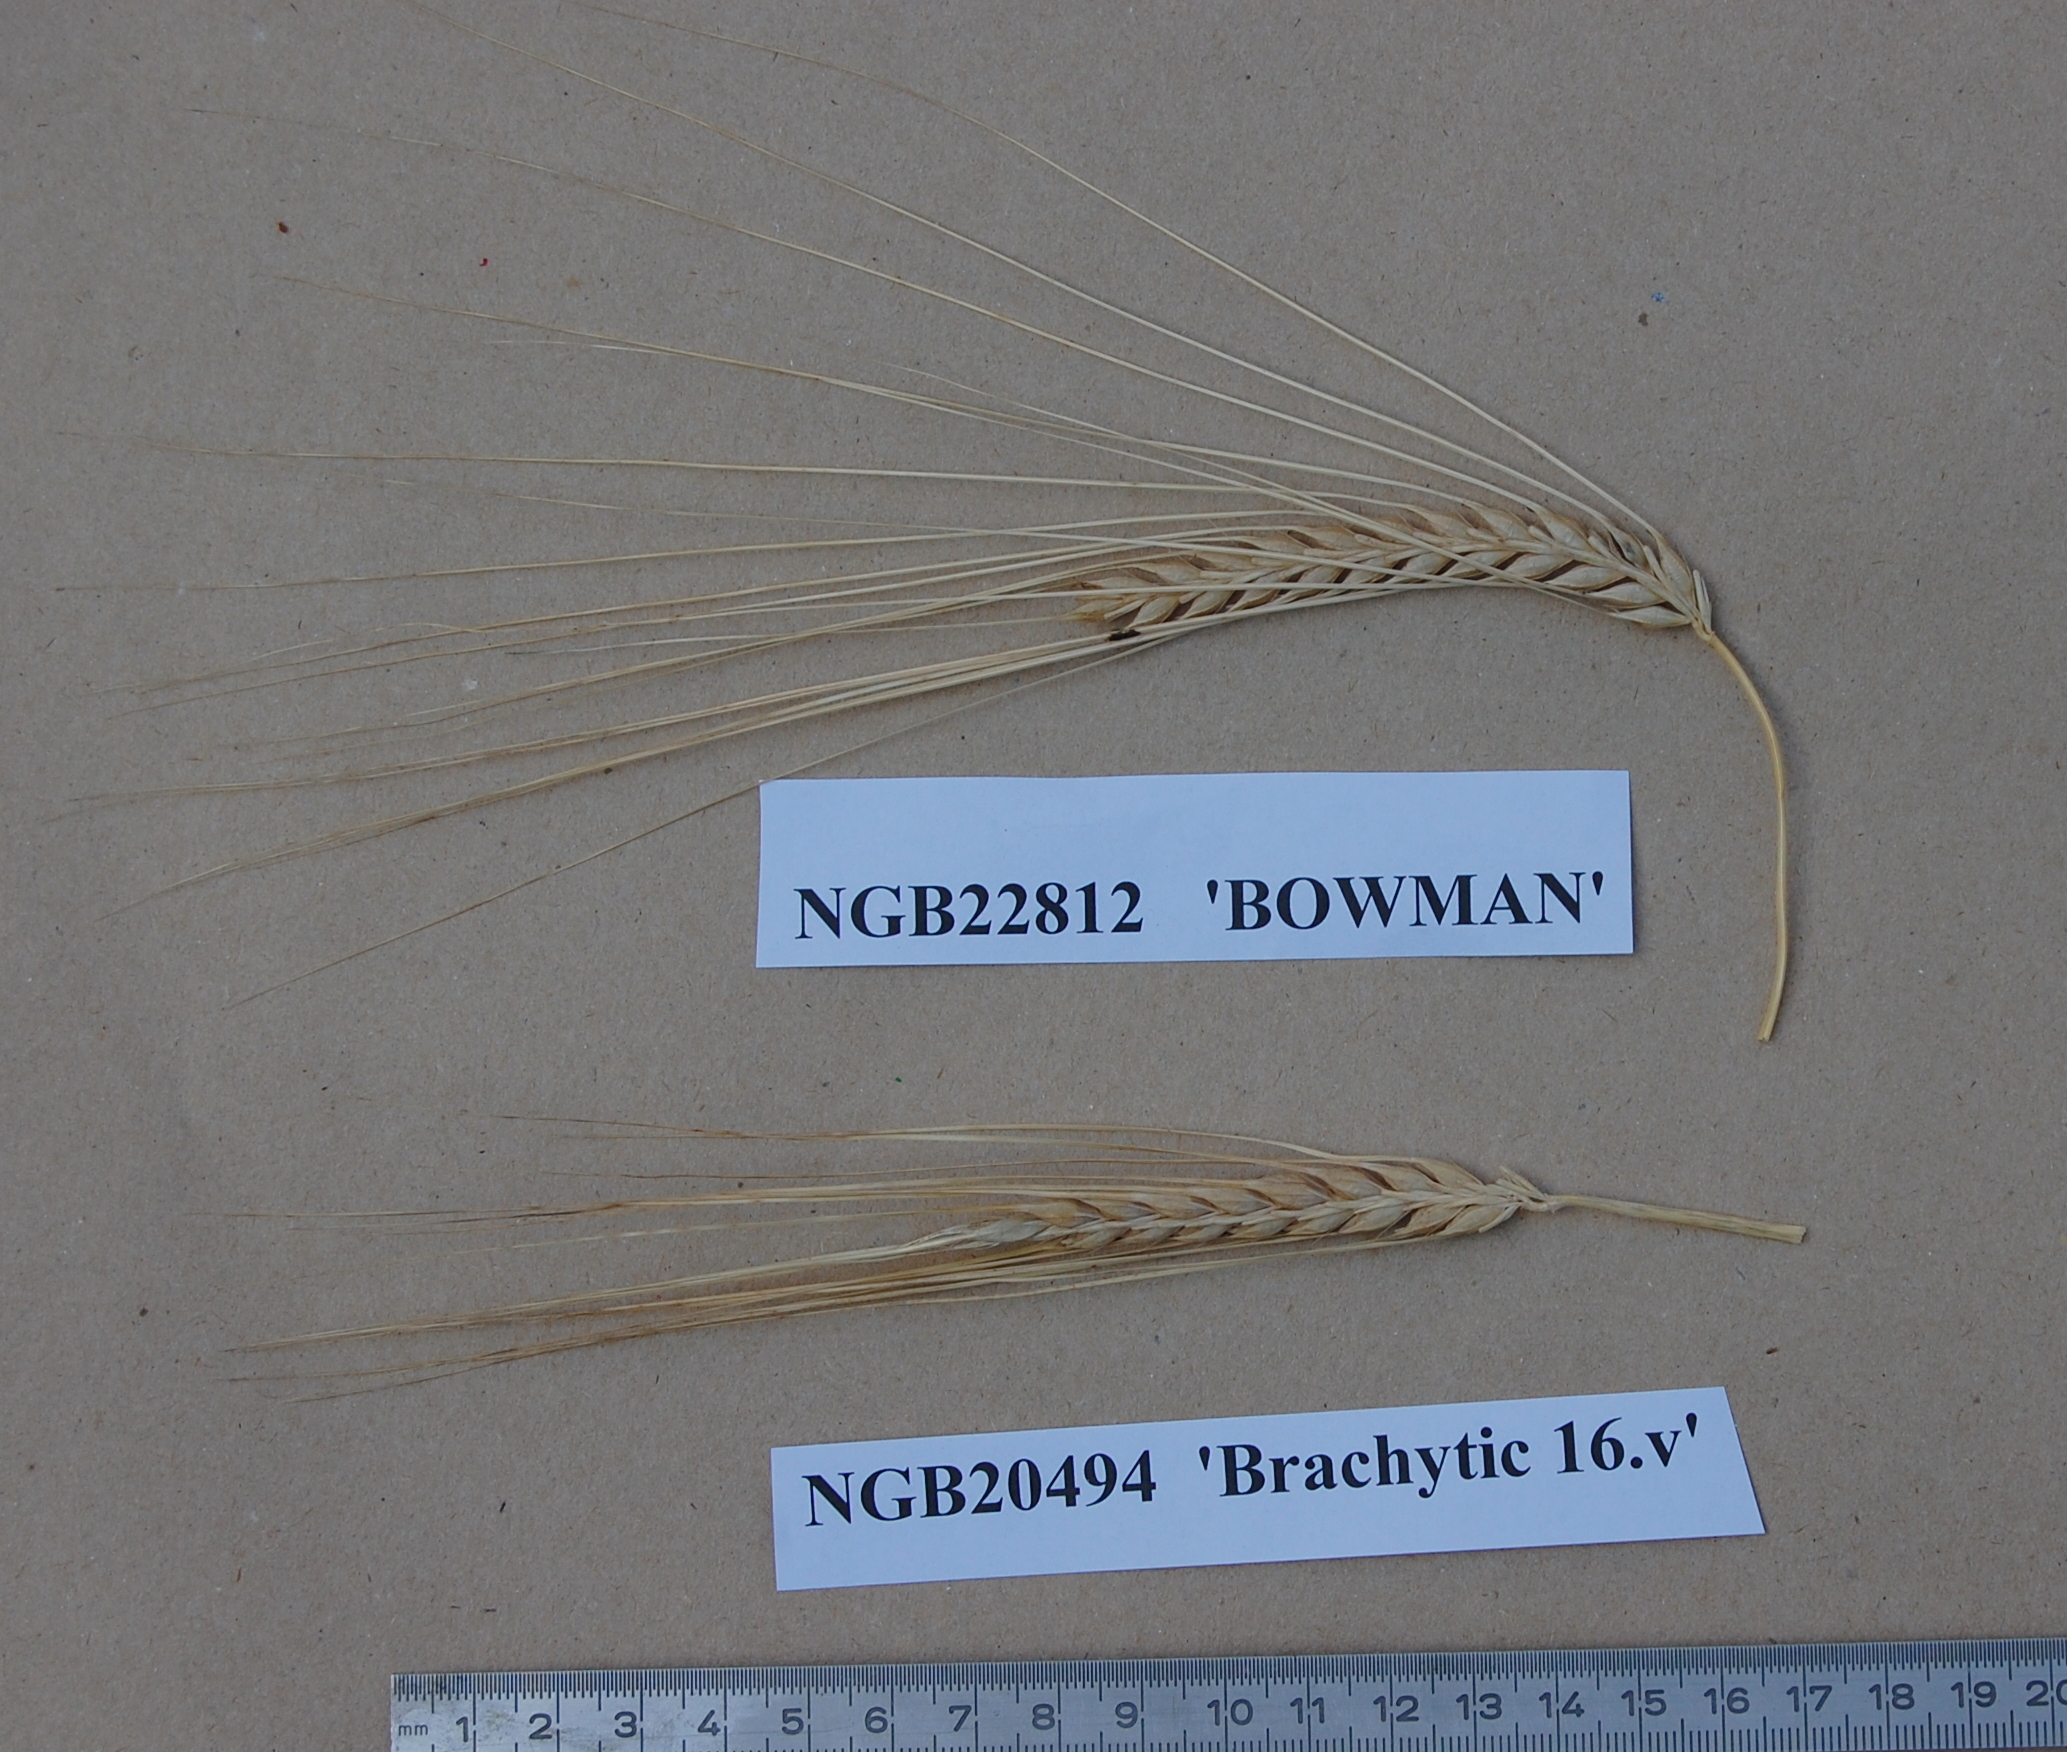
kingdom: Plantae
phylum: Tracheophyta
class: Liliopsida
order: Poales
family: Poaceae
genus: Hordeum
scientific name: Hordeum vulgare
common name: Common barley
